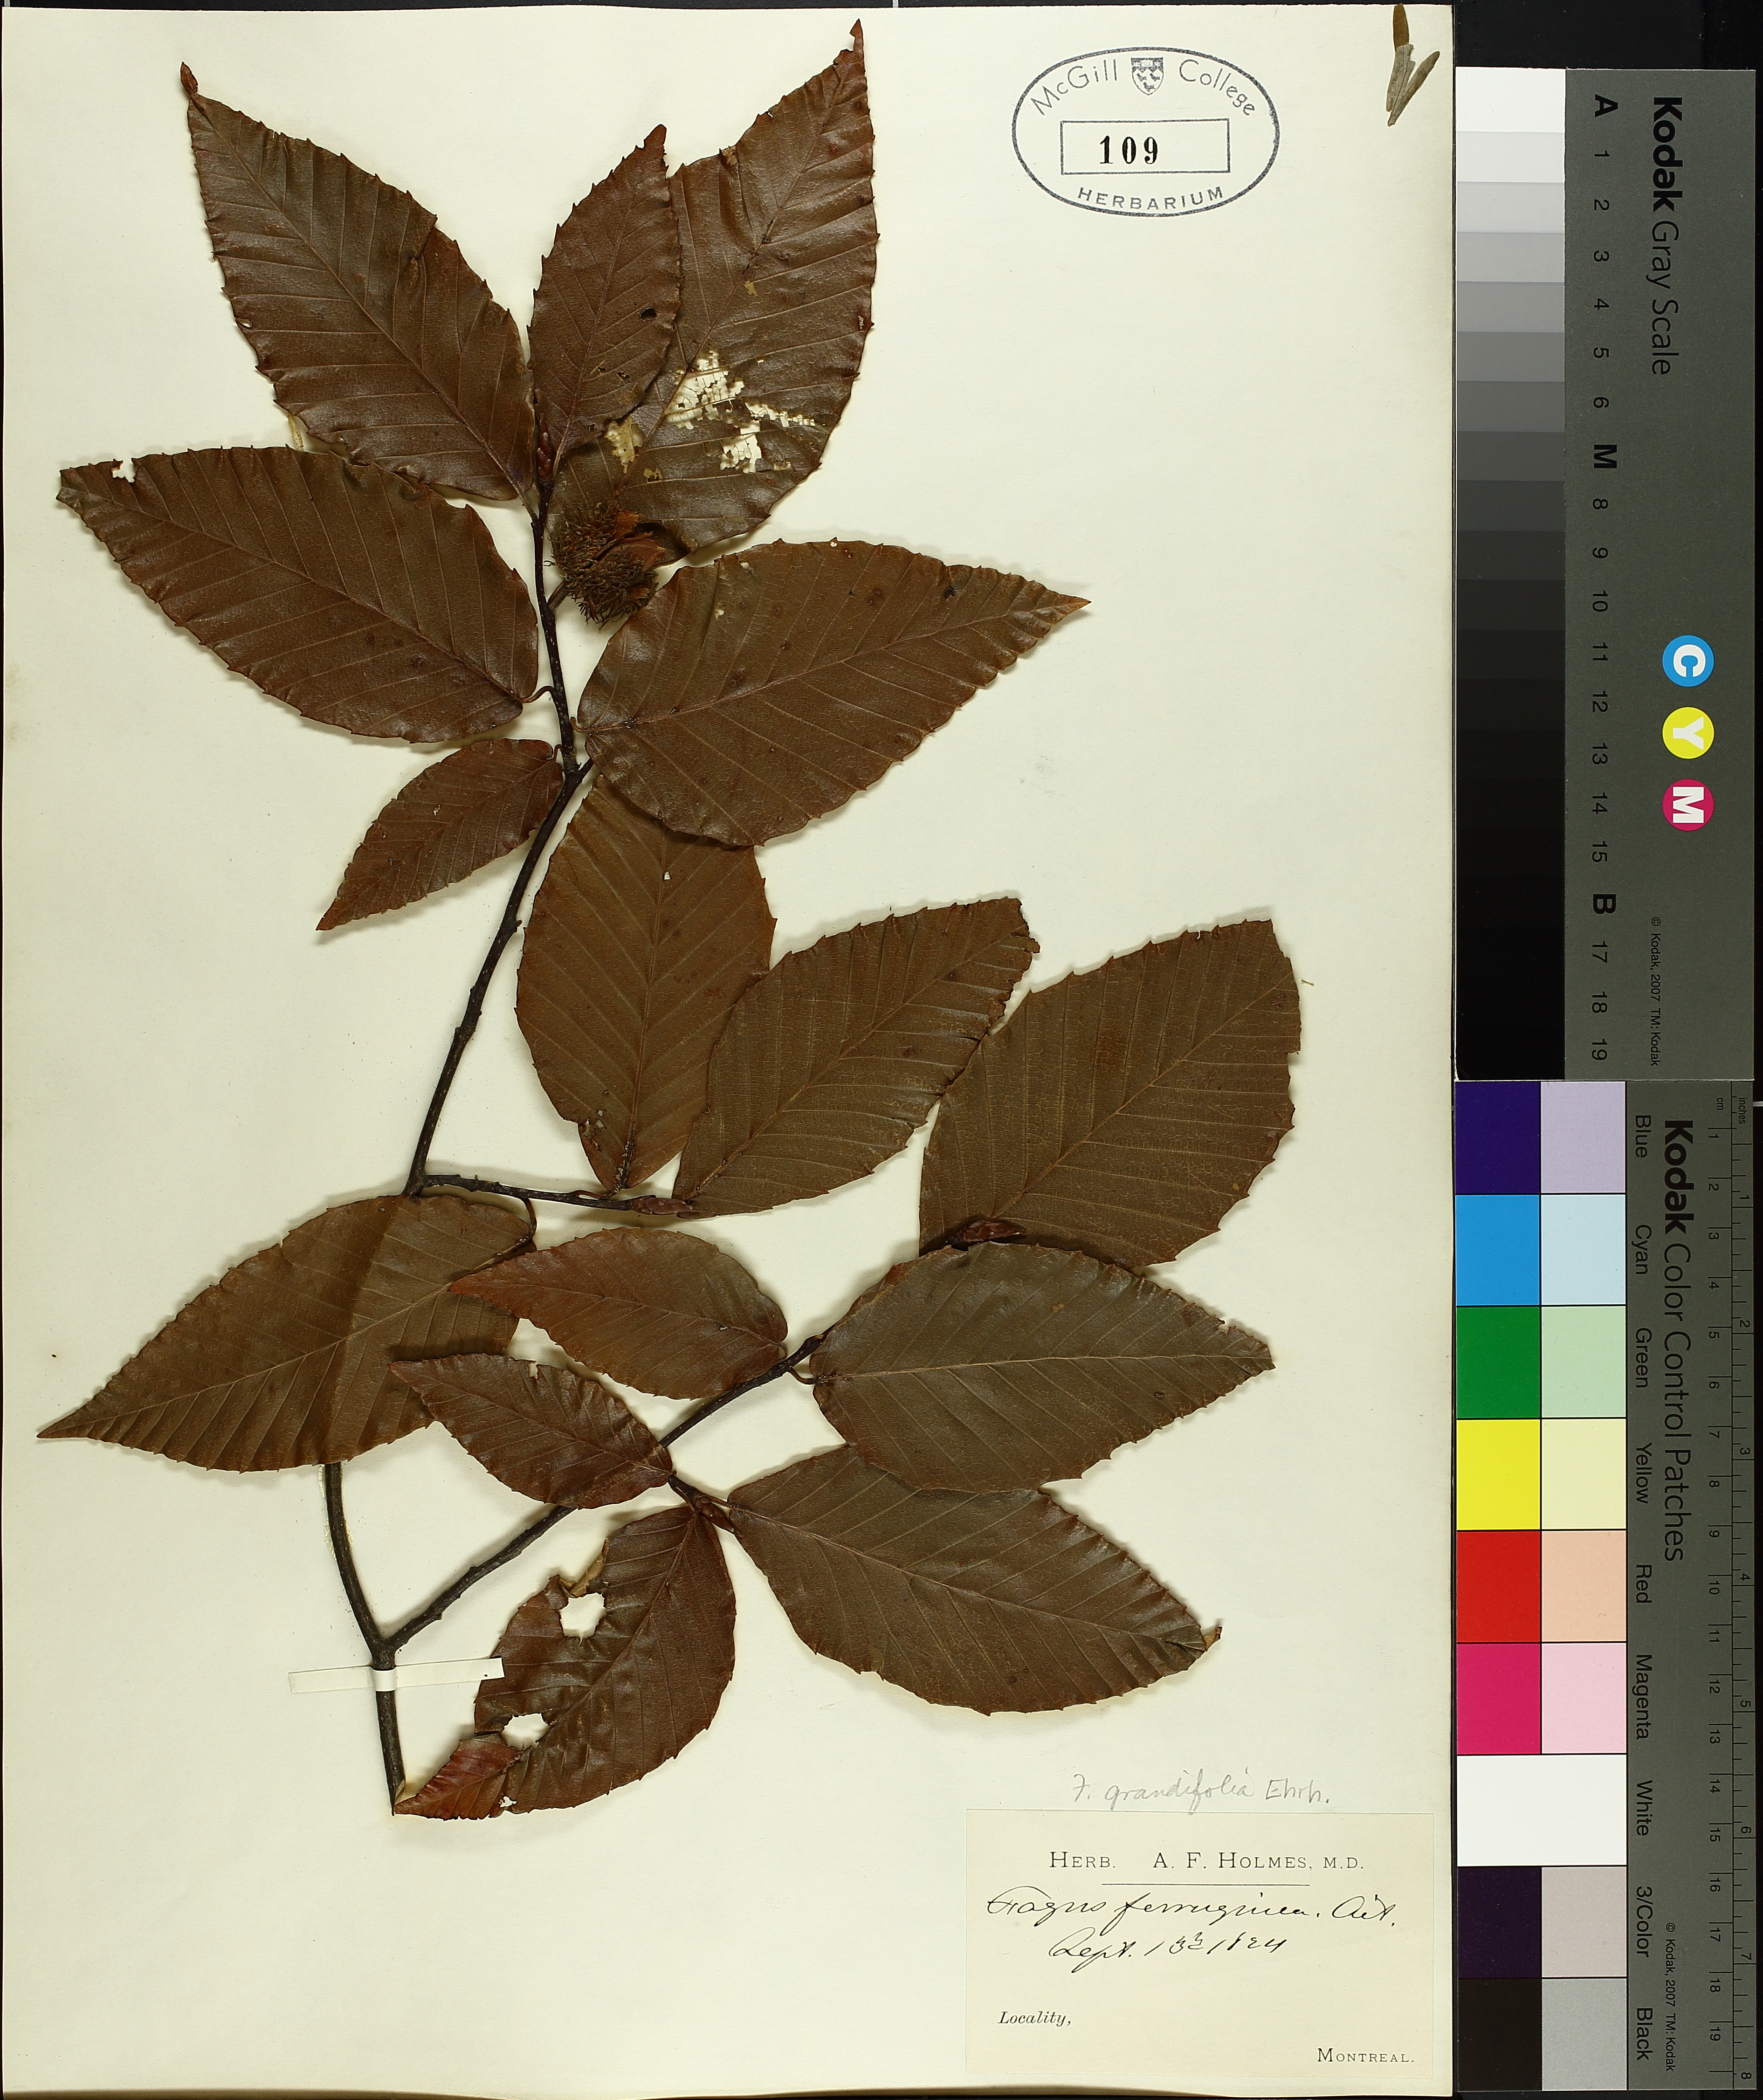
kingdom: Plantae
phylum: Tracheophyta
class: Magnoliopsida
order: Fagales
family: Fagaceae
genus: Fagus
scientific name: Fagus grandifolia
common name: American beech
